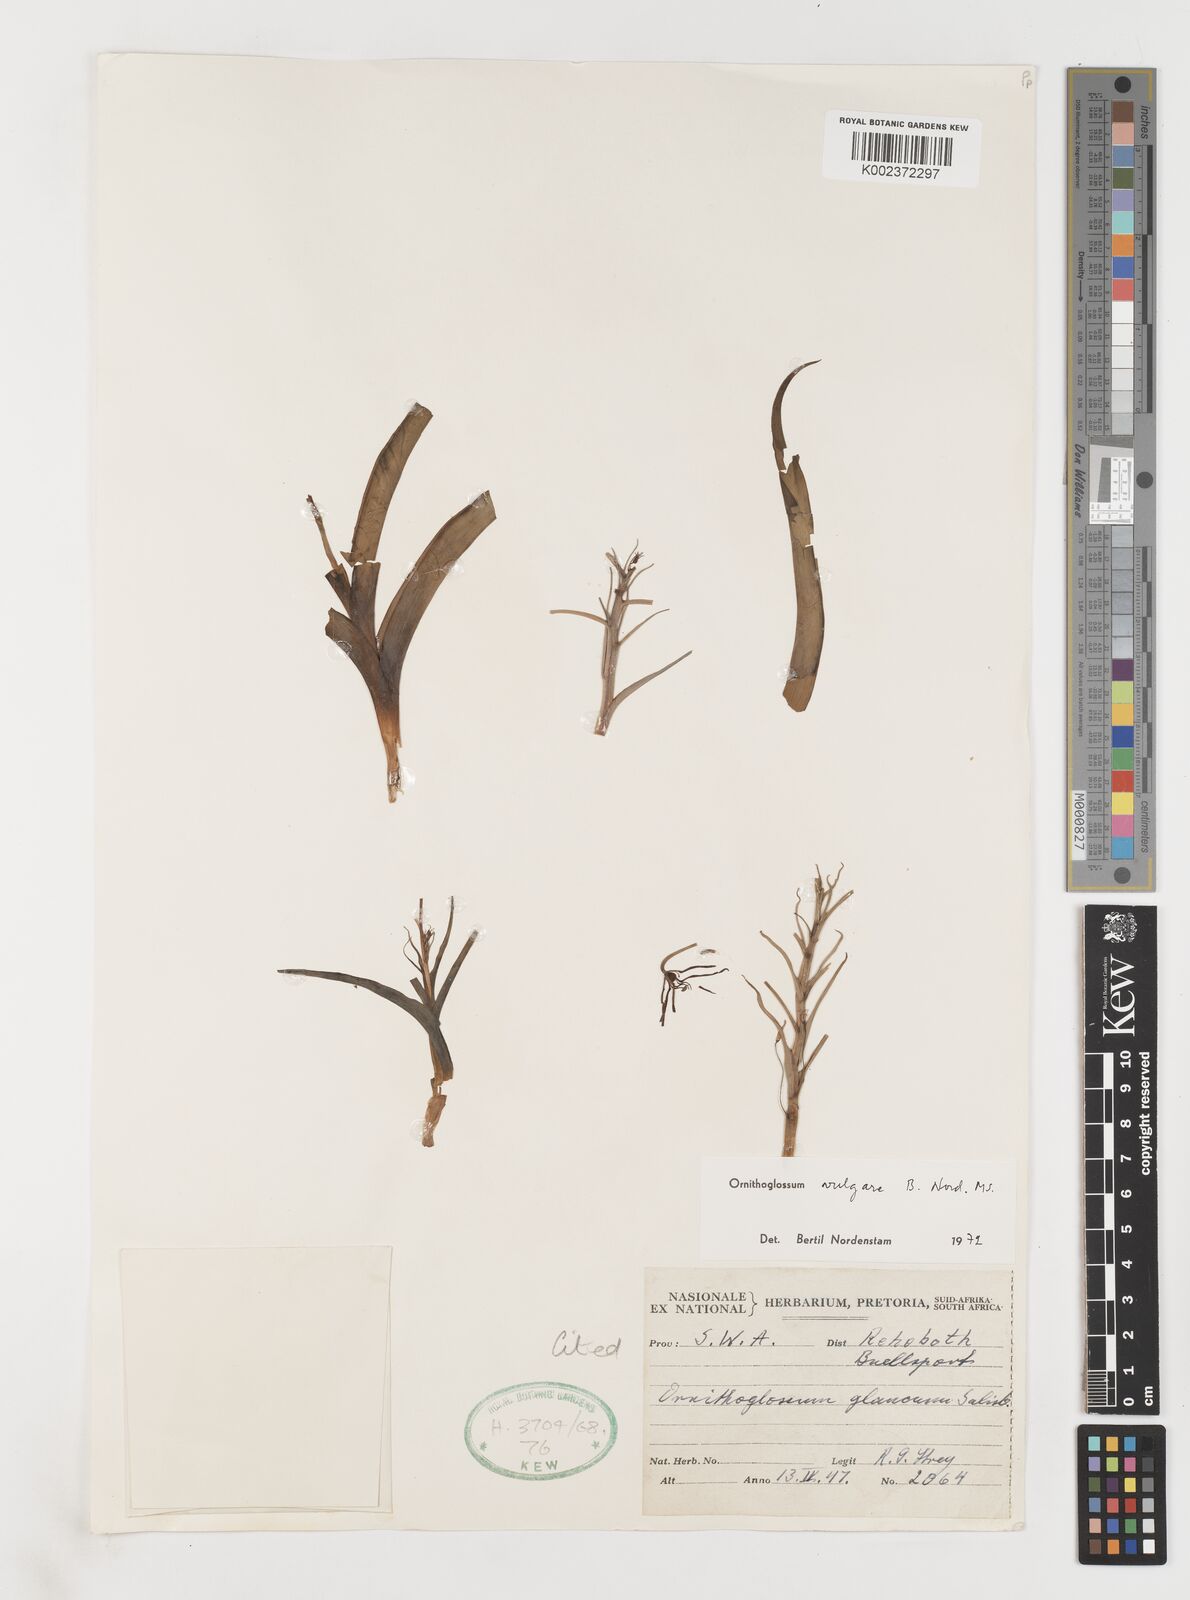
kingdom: Plantae
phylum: Tracheophyta
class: Liliopsida
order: Liliales
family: Colchicaceae
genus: Ornithoglossum
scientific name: Ornithoglossum vulgare
